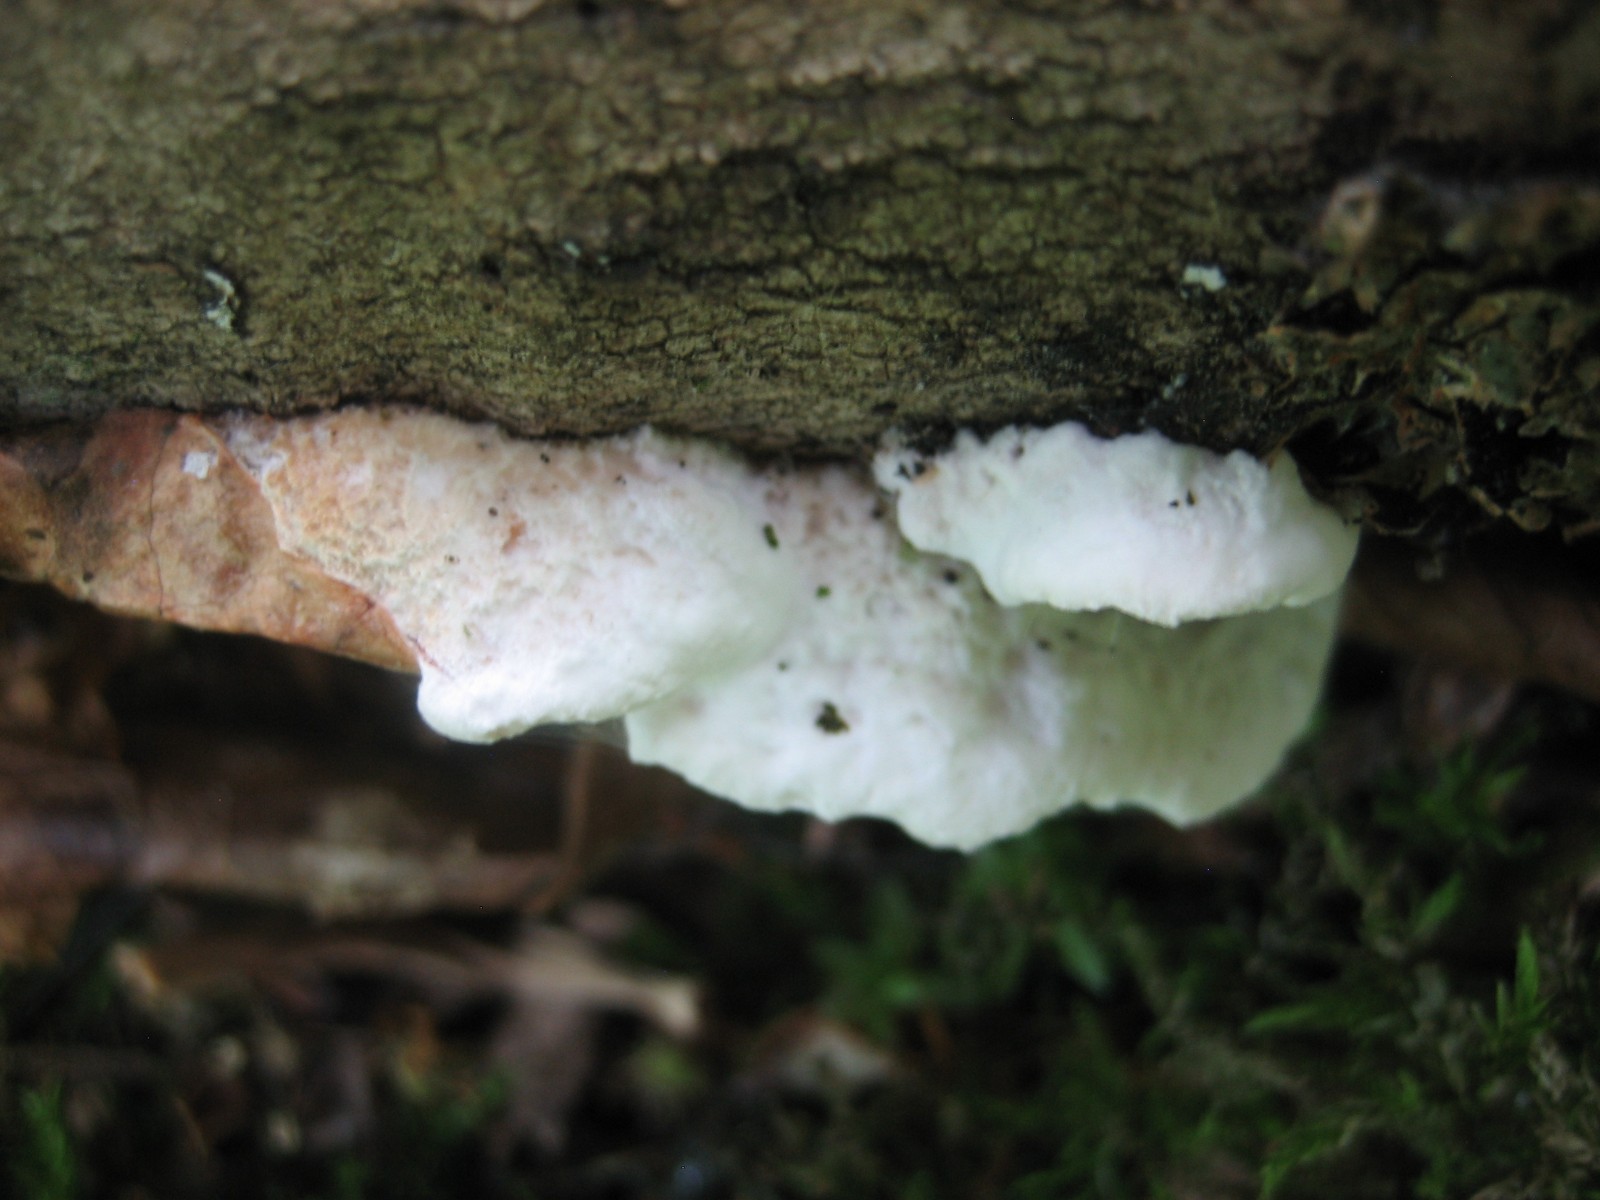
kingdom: Fungi
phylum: Basidiomycota
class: Agaricomycetes
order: Polyporales
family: Incrustoporiaceae
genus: Skeletocutis
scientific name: Skeletocutis nemoralis
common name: stor krystalporesvamp
